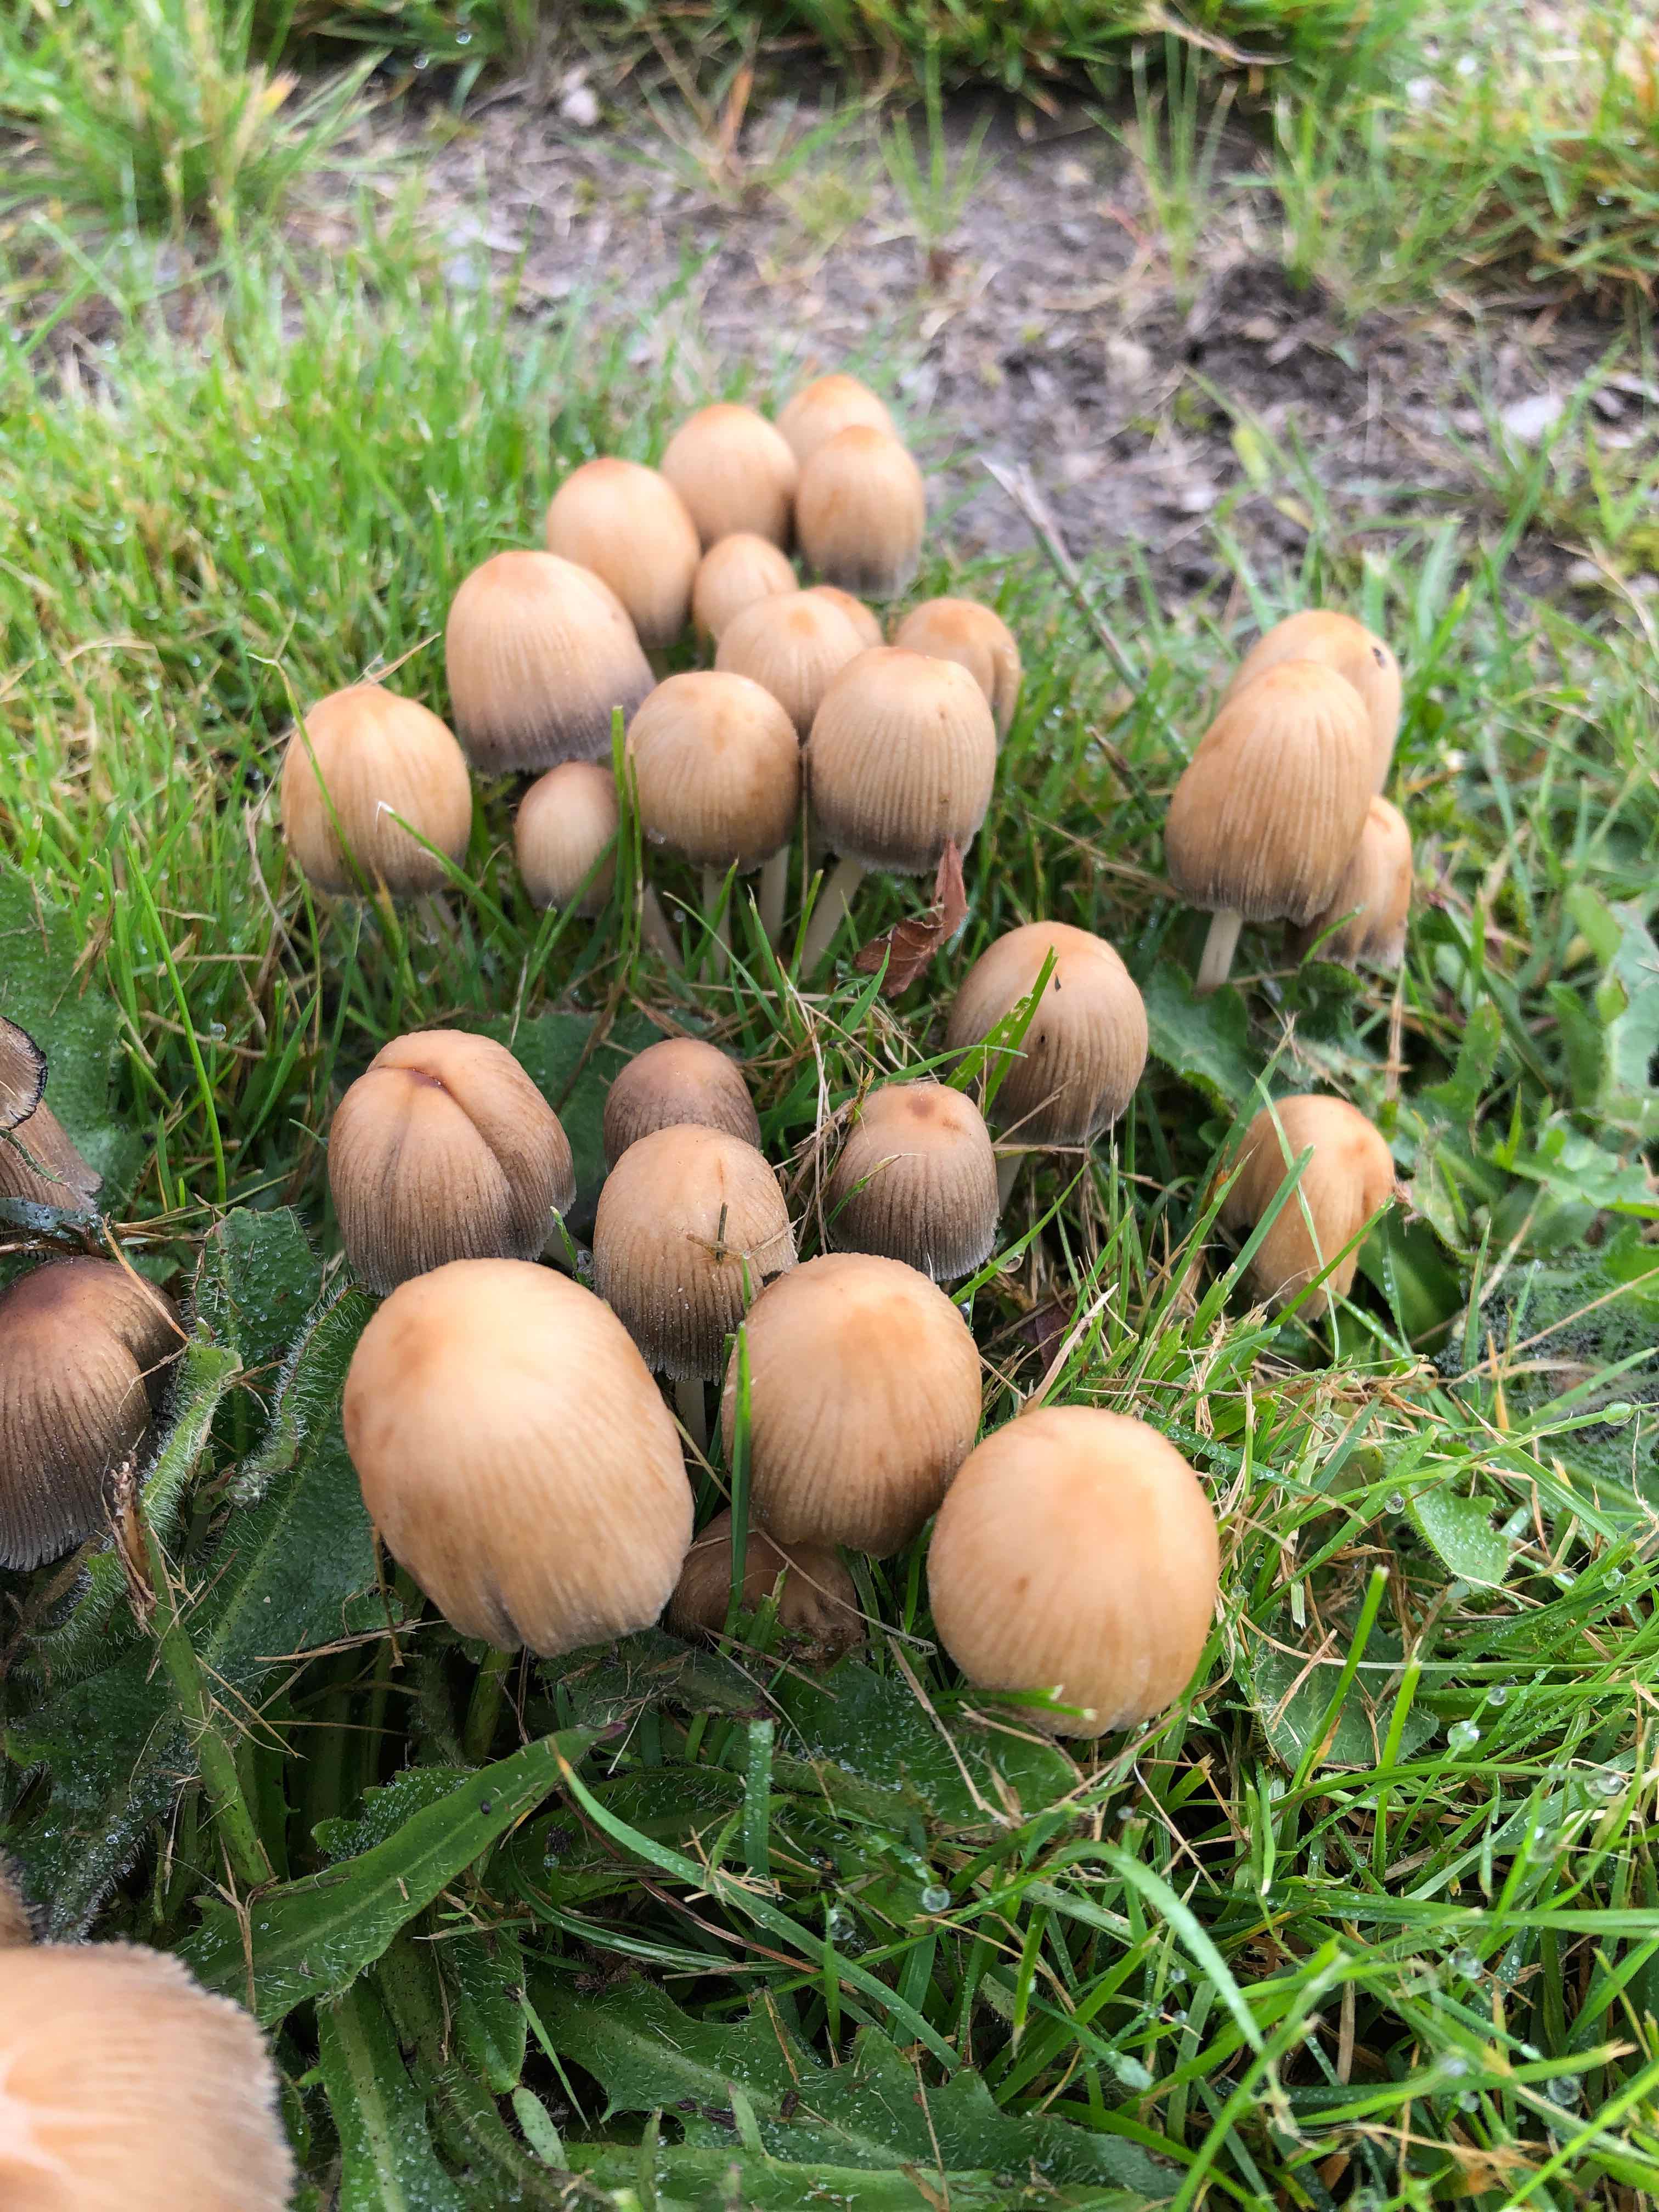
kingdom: Fungi
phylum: Basidiomycota
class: Agaricomycetes
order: Agaricales
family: Psathyrellaceae
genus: Coprinellus
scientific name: Coprinellus micaceus
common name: glimmer-blækhat
